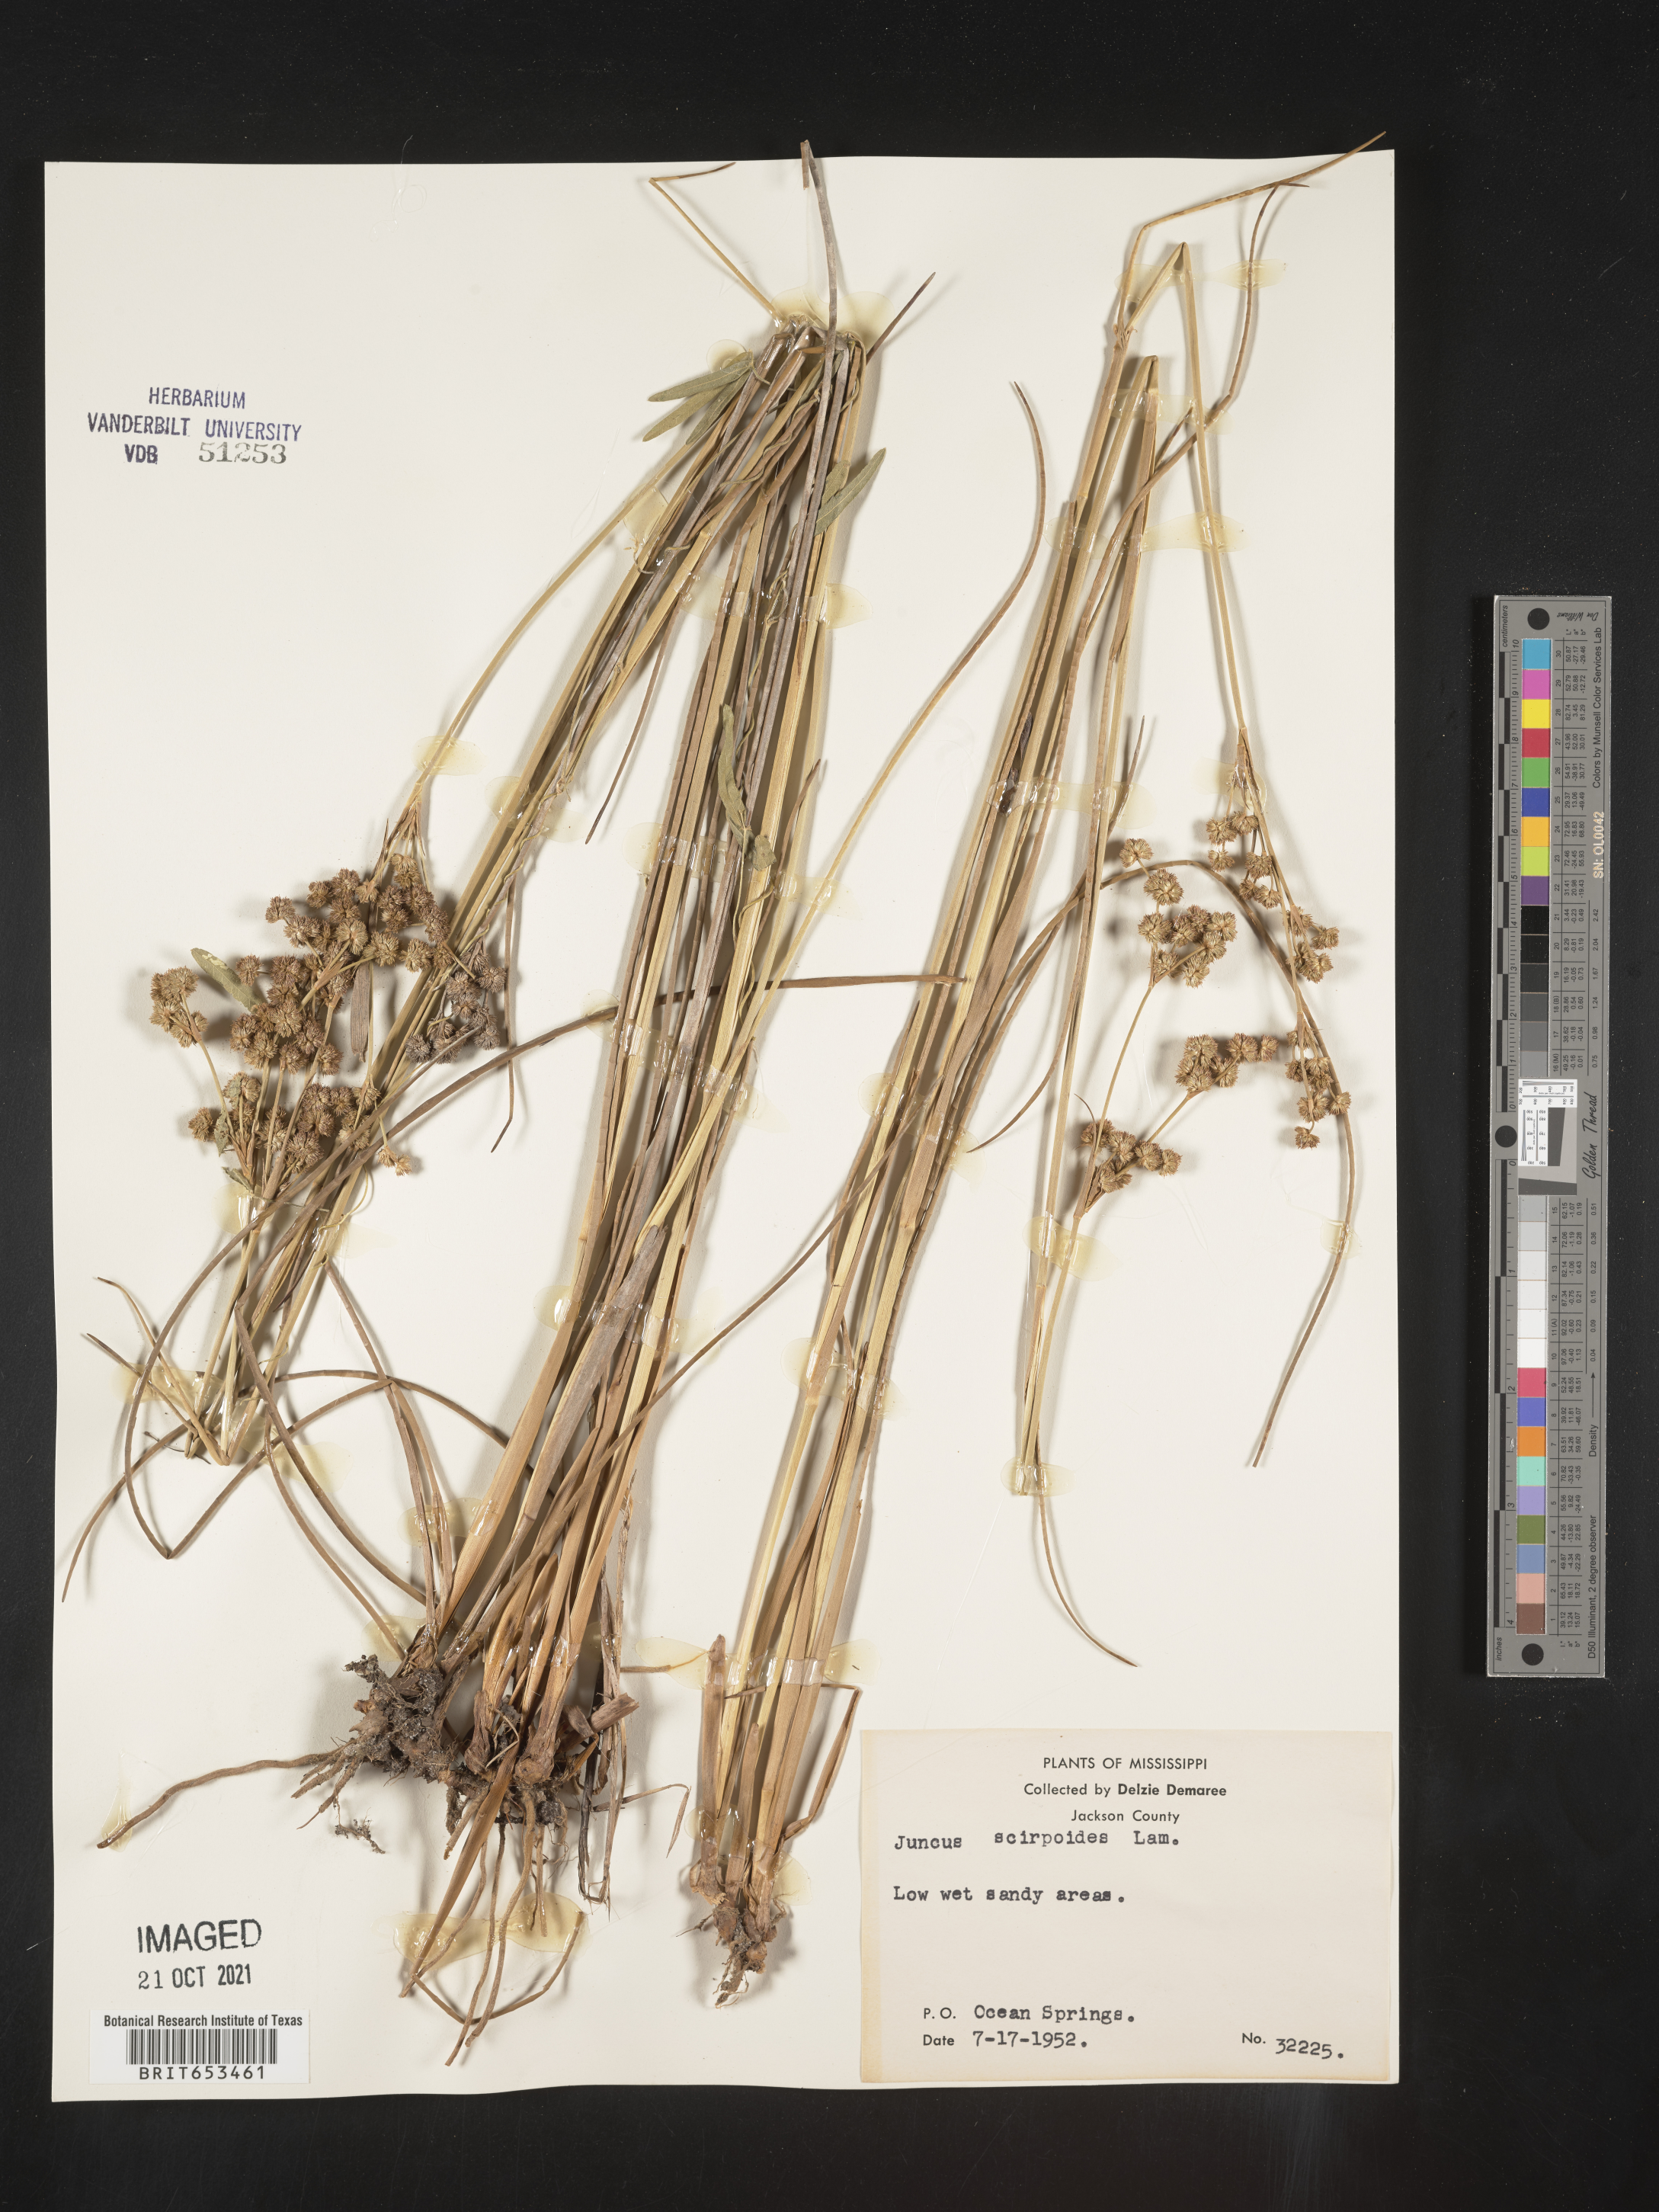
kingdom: Plantae
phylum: Tracheophyta
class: Liliopsida
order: Poales
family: Juncaceae
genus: Juncus
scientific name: Juncus scirpoides
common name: Needlepod rush
